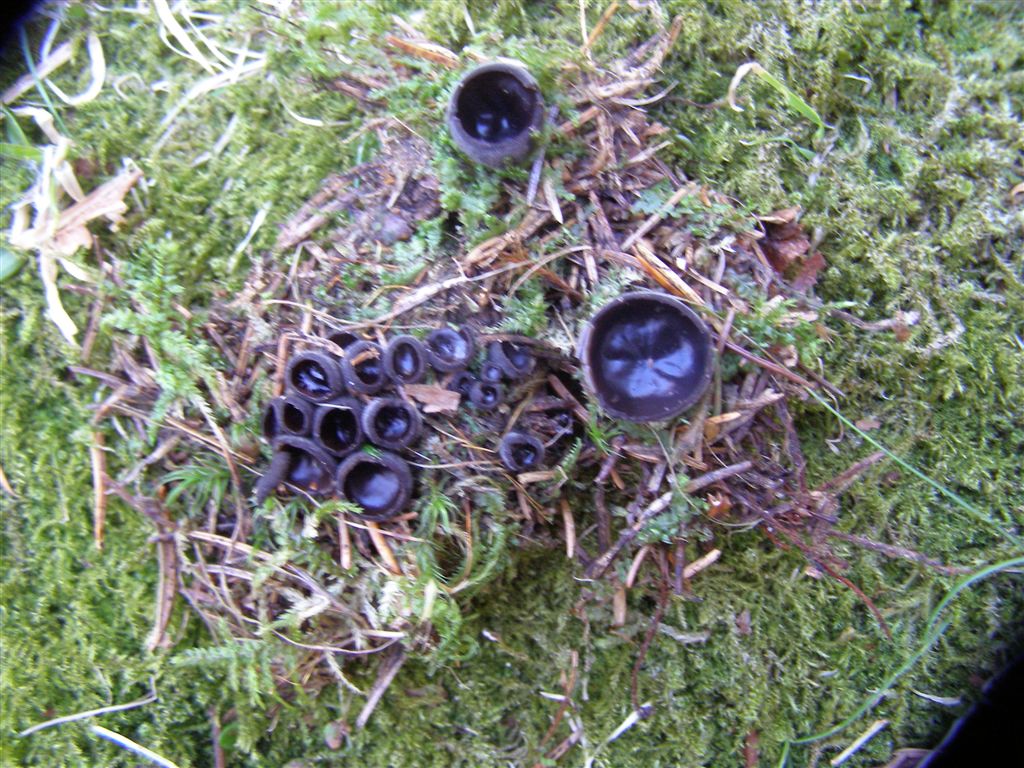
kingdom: Fungi
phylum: Ascomycota
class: Pezizomycetes
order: Pezizales
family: Sarcosomataceae
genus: Pseudoplectania
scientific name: Pseudoplectania nigrella
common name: almindelig sortbæger
